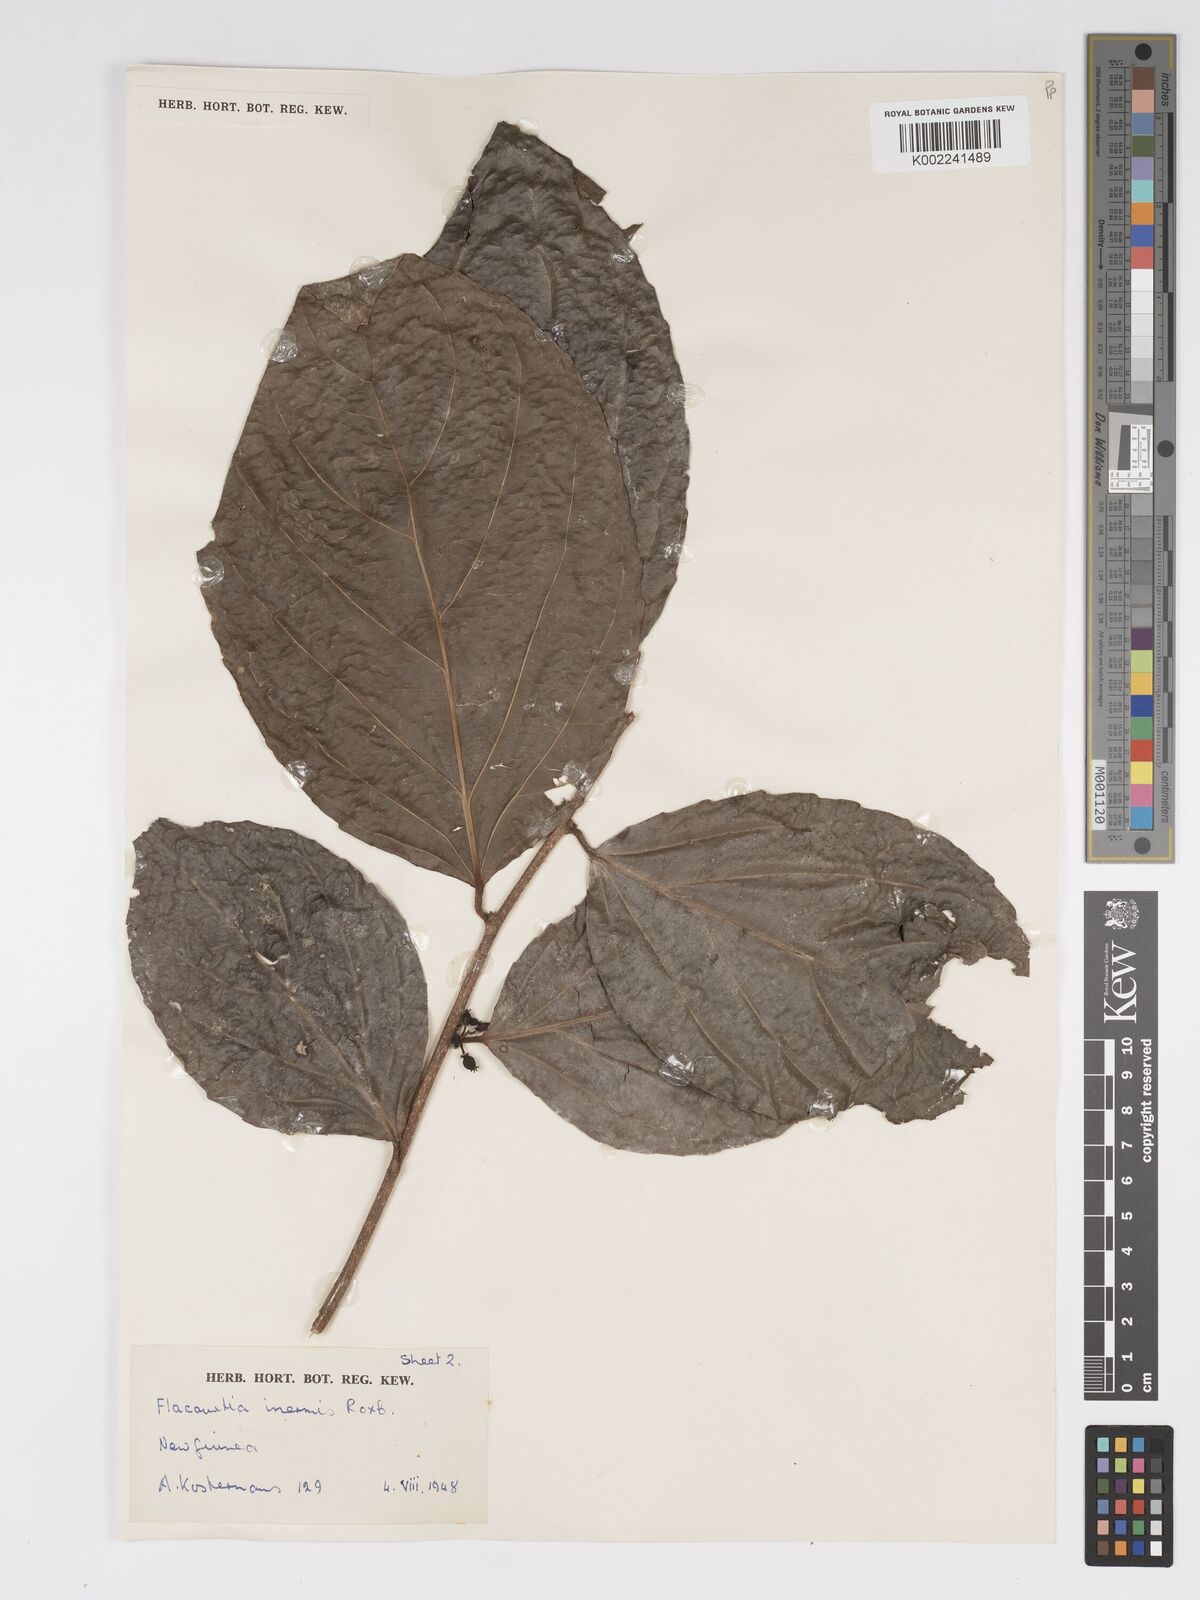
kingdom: Plantae
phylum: Tracheophyta
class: Magnoliopsida
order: Malpighiales
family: Salicaceae
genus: Flacourtia
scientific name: Flacourtia inermis
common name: Plum-of-martinique
